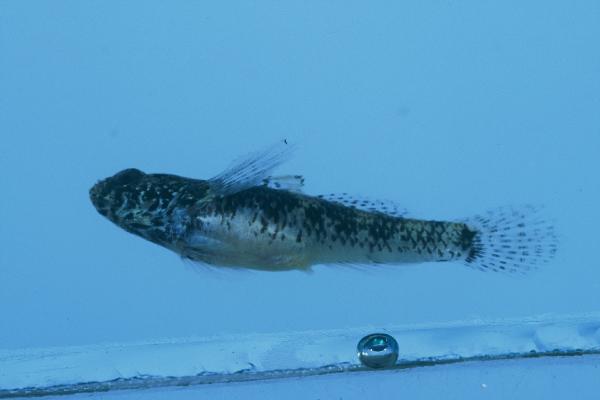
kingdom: Animalia
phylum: Chordata
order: Perciformes
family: Gobiidae
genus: Palutrus
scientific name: Palutrus scapulopunctatus
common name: Scapular goby
